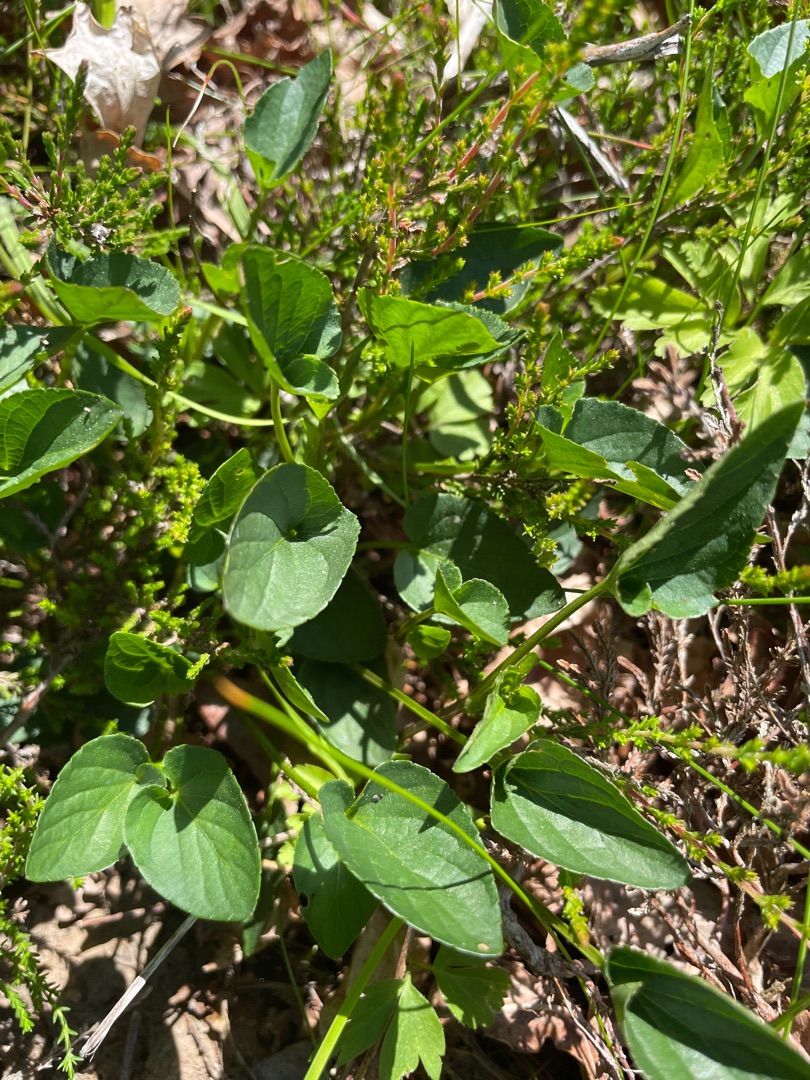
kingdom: Plantae
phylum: Tracheophyta
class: Magnoliopsida
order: Malpighiales
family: Violaceae
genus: Viola
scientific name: Viola canina
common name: Hunde-viol
